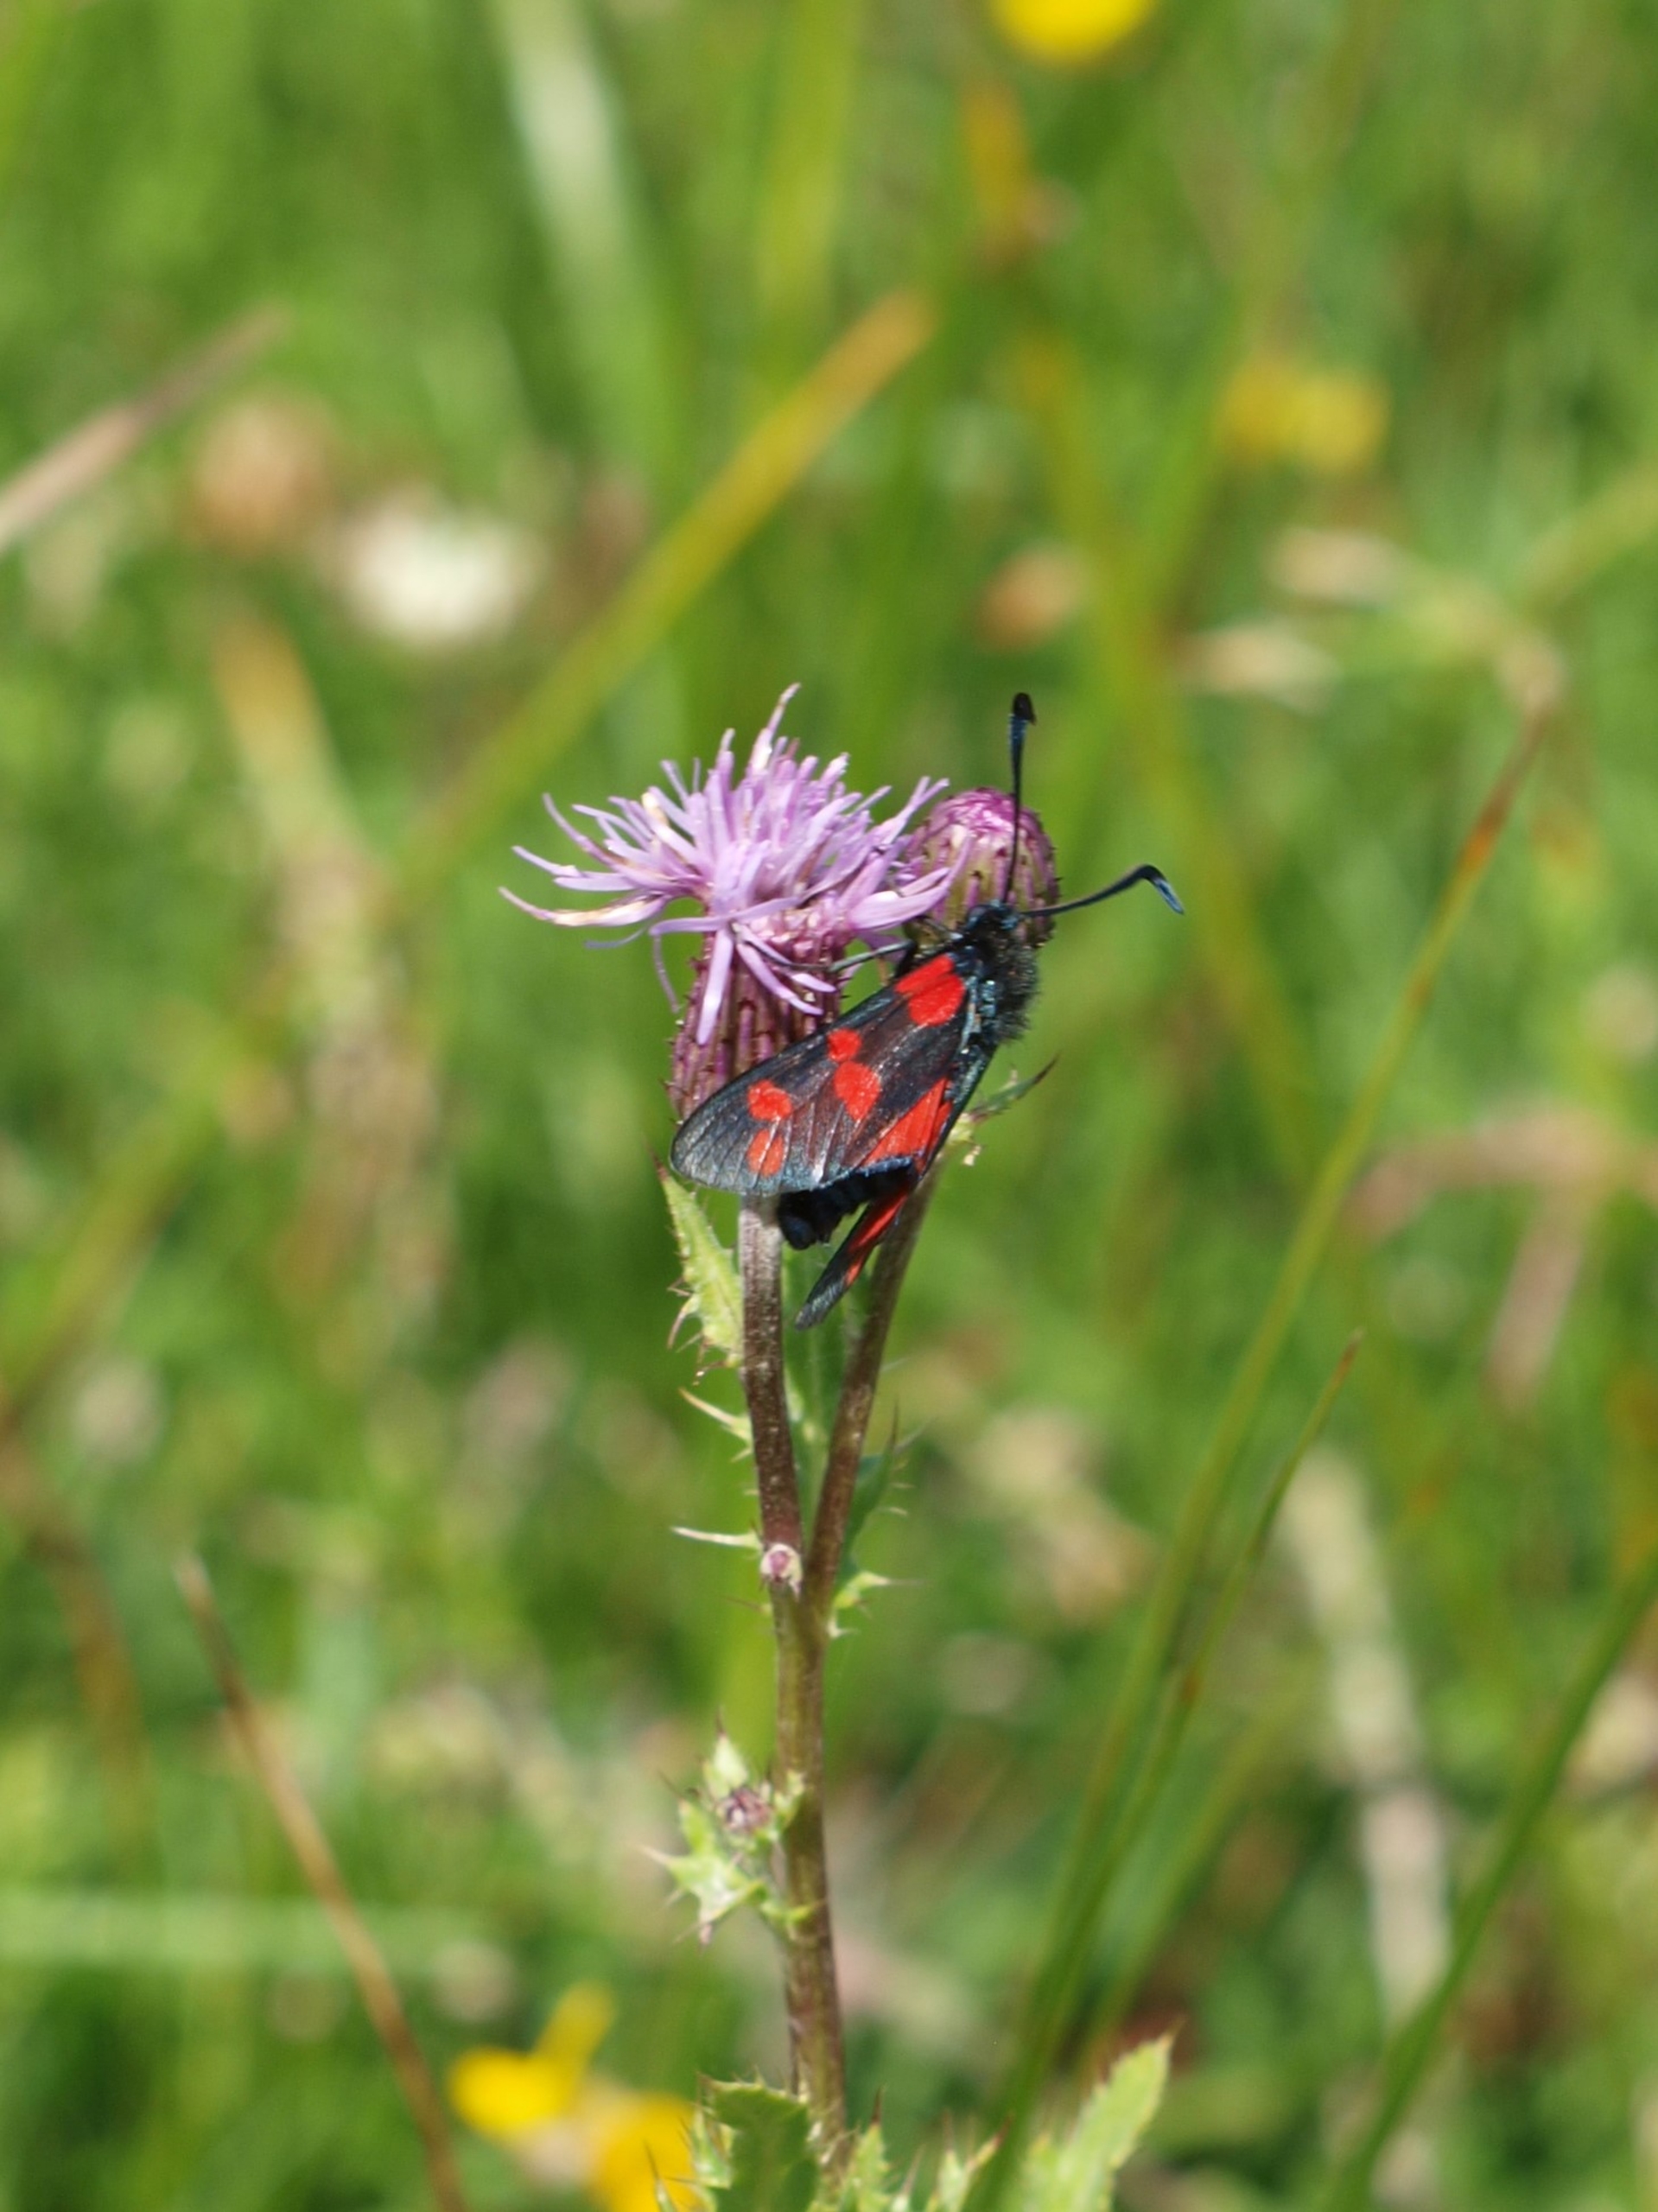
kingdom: Animalia
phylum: Arthropoda
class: Insecta
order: Lepidoptera
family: Zygaenidae
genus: Zygaena
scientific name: Zygaena filipendulae
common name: Seksplettet køllesværmer
